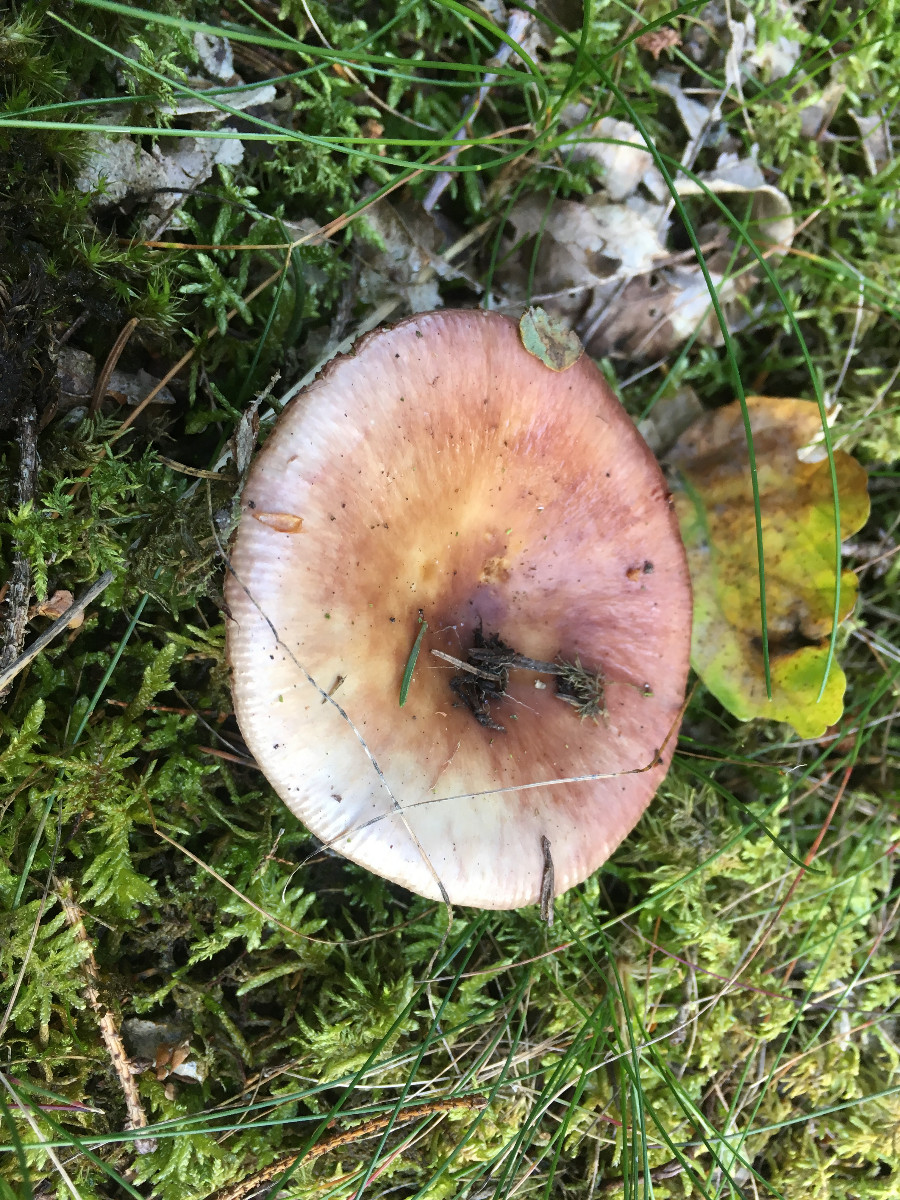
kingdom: Fungi
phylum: Basidiomycota
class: Agaricomycetes
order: Russulales
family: Russulaceae
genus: Russula
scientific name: Russula
